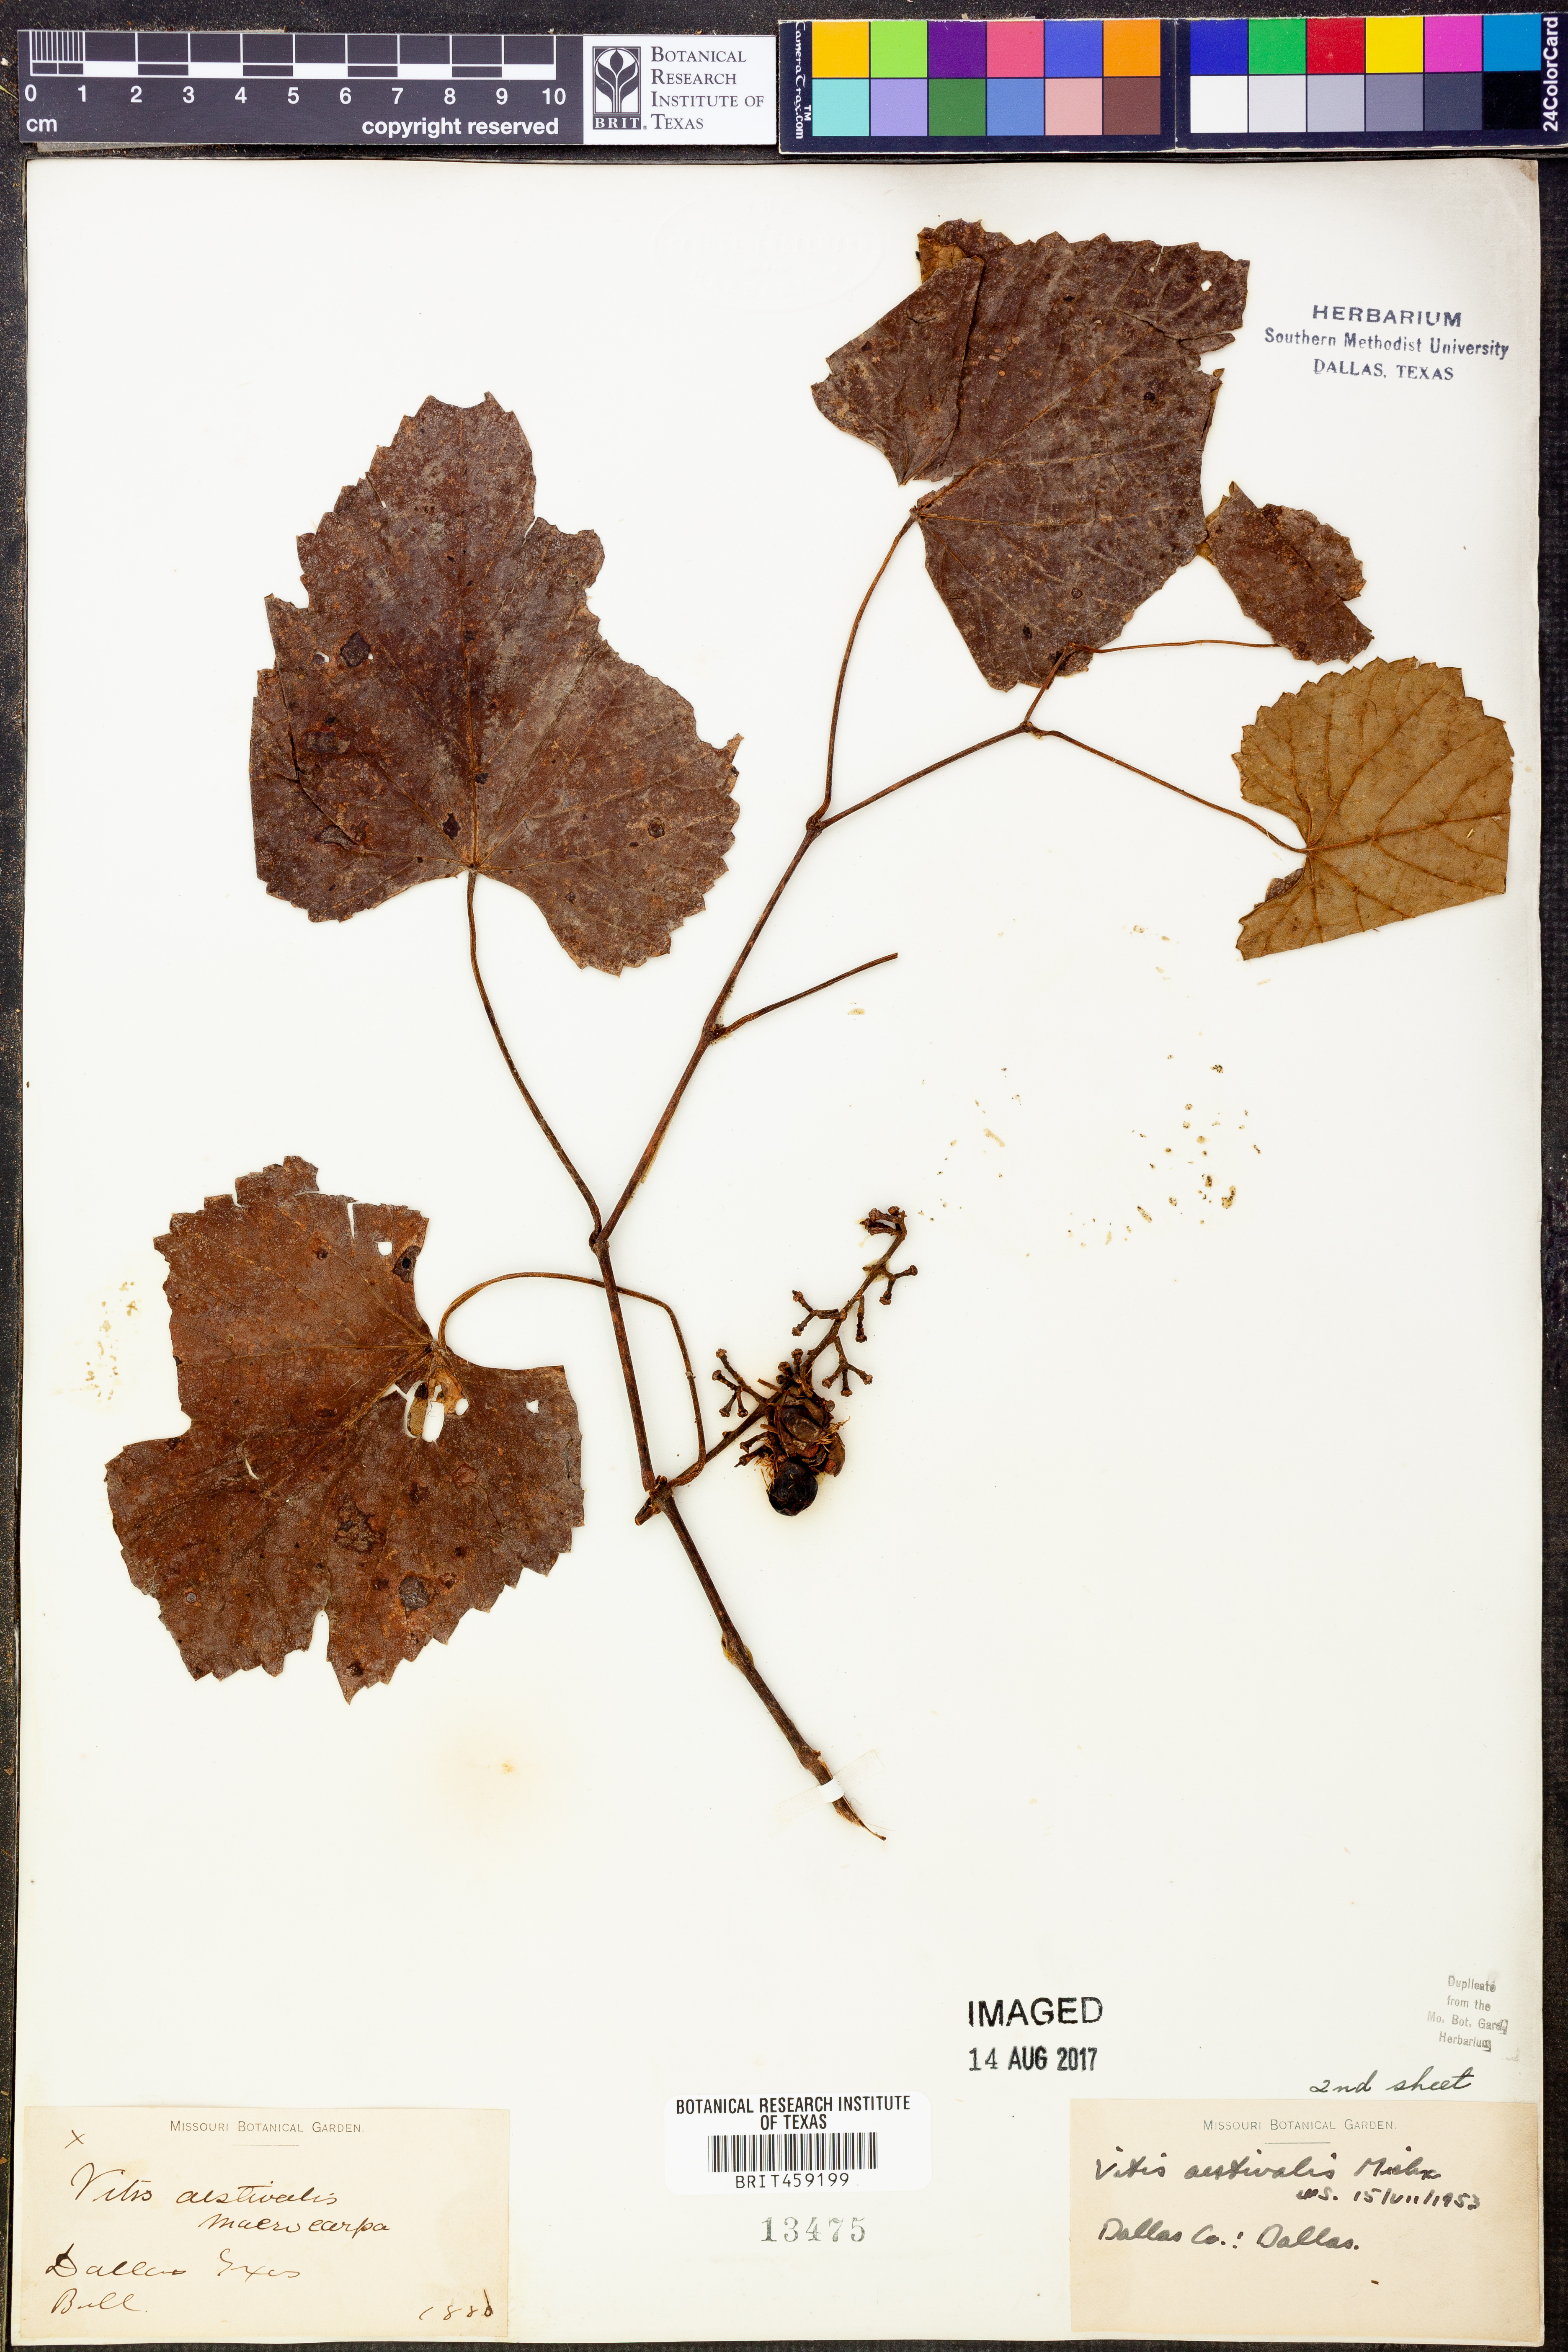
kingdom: Plantae
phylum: Tracheophyta
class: Magnoliopsida
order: Vitales
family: Vitaceae
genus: Vitis
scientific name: Vitis aestivalis
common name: Pigeon grape
